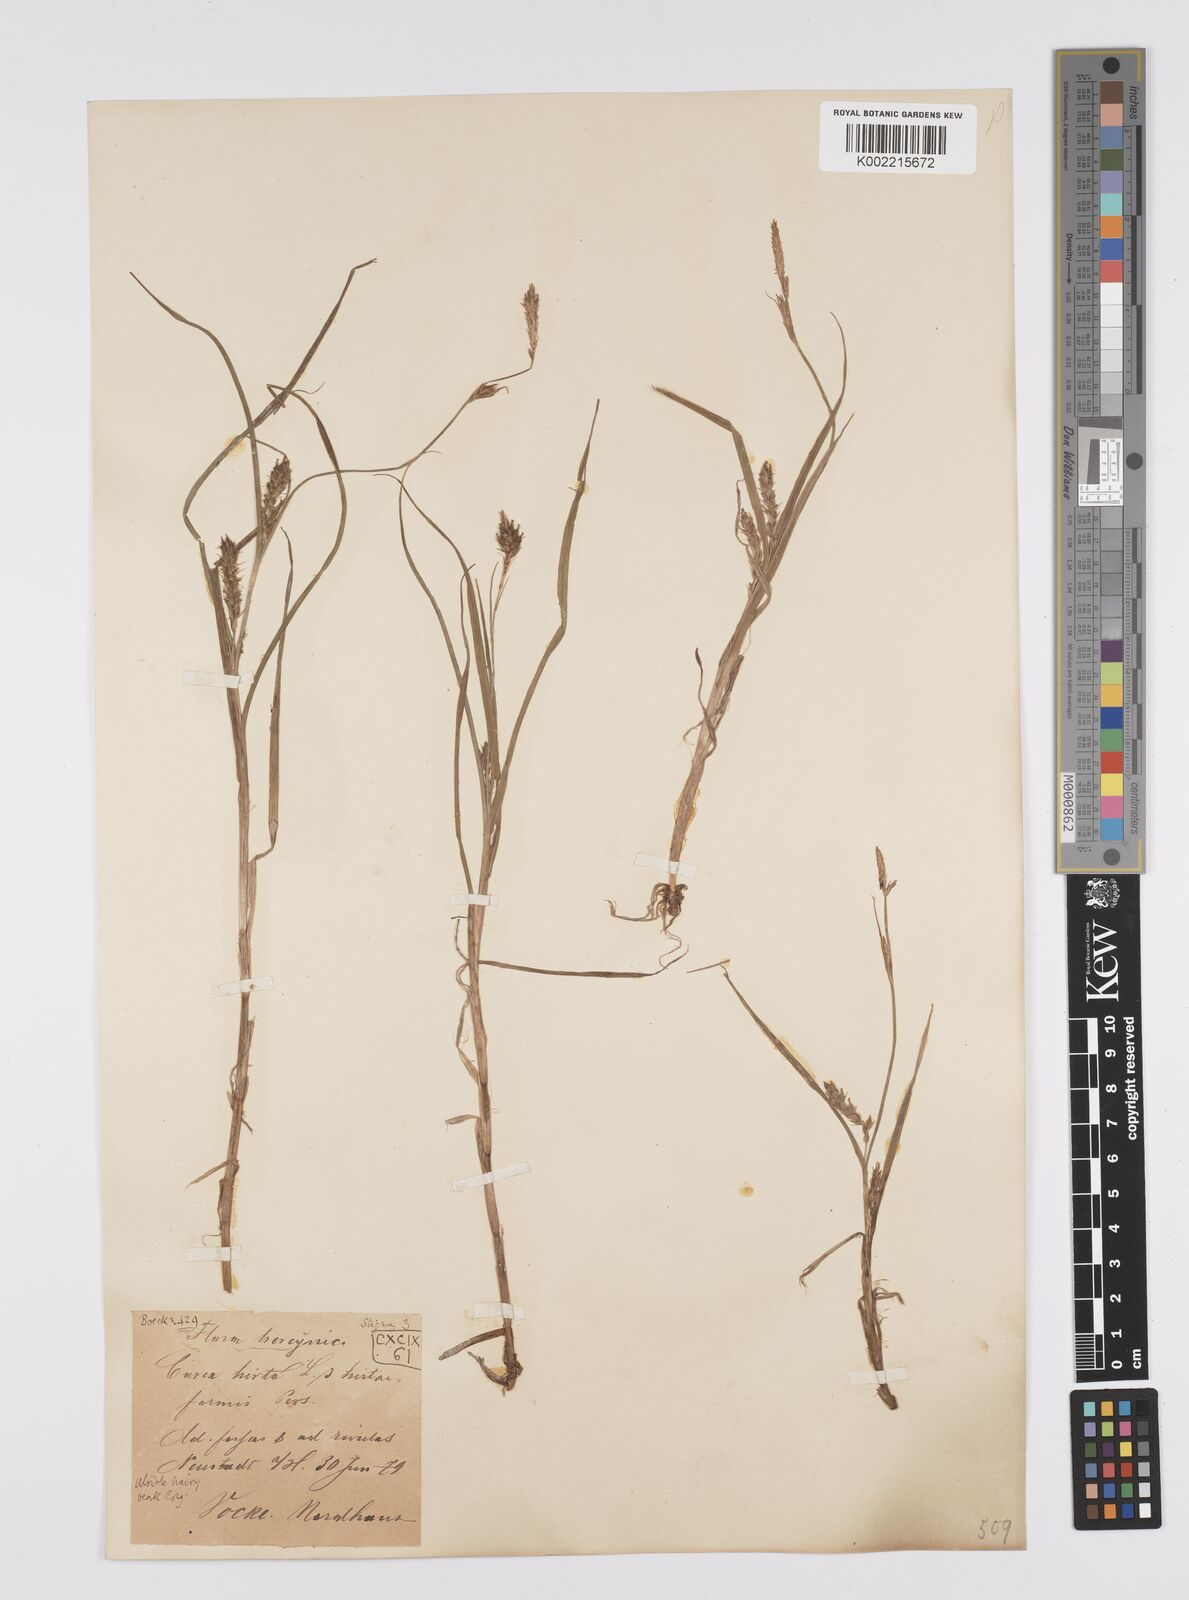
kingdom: Plantae
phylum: Tracheophyta
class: Liliopsida
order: Poales
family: Cyperaceae
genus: Carex
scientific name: Carex hirta
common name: Hairy sedge
